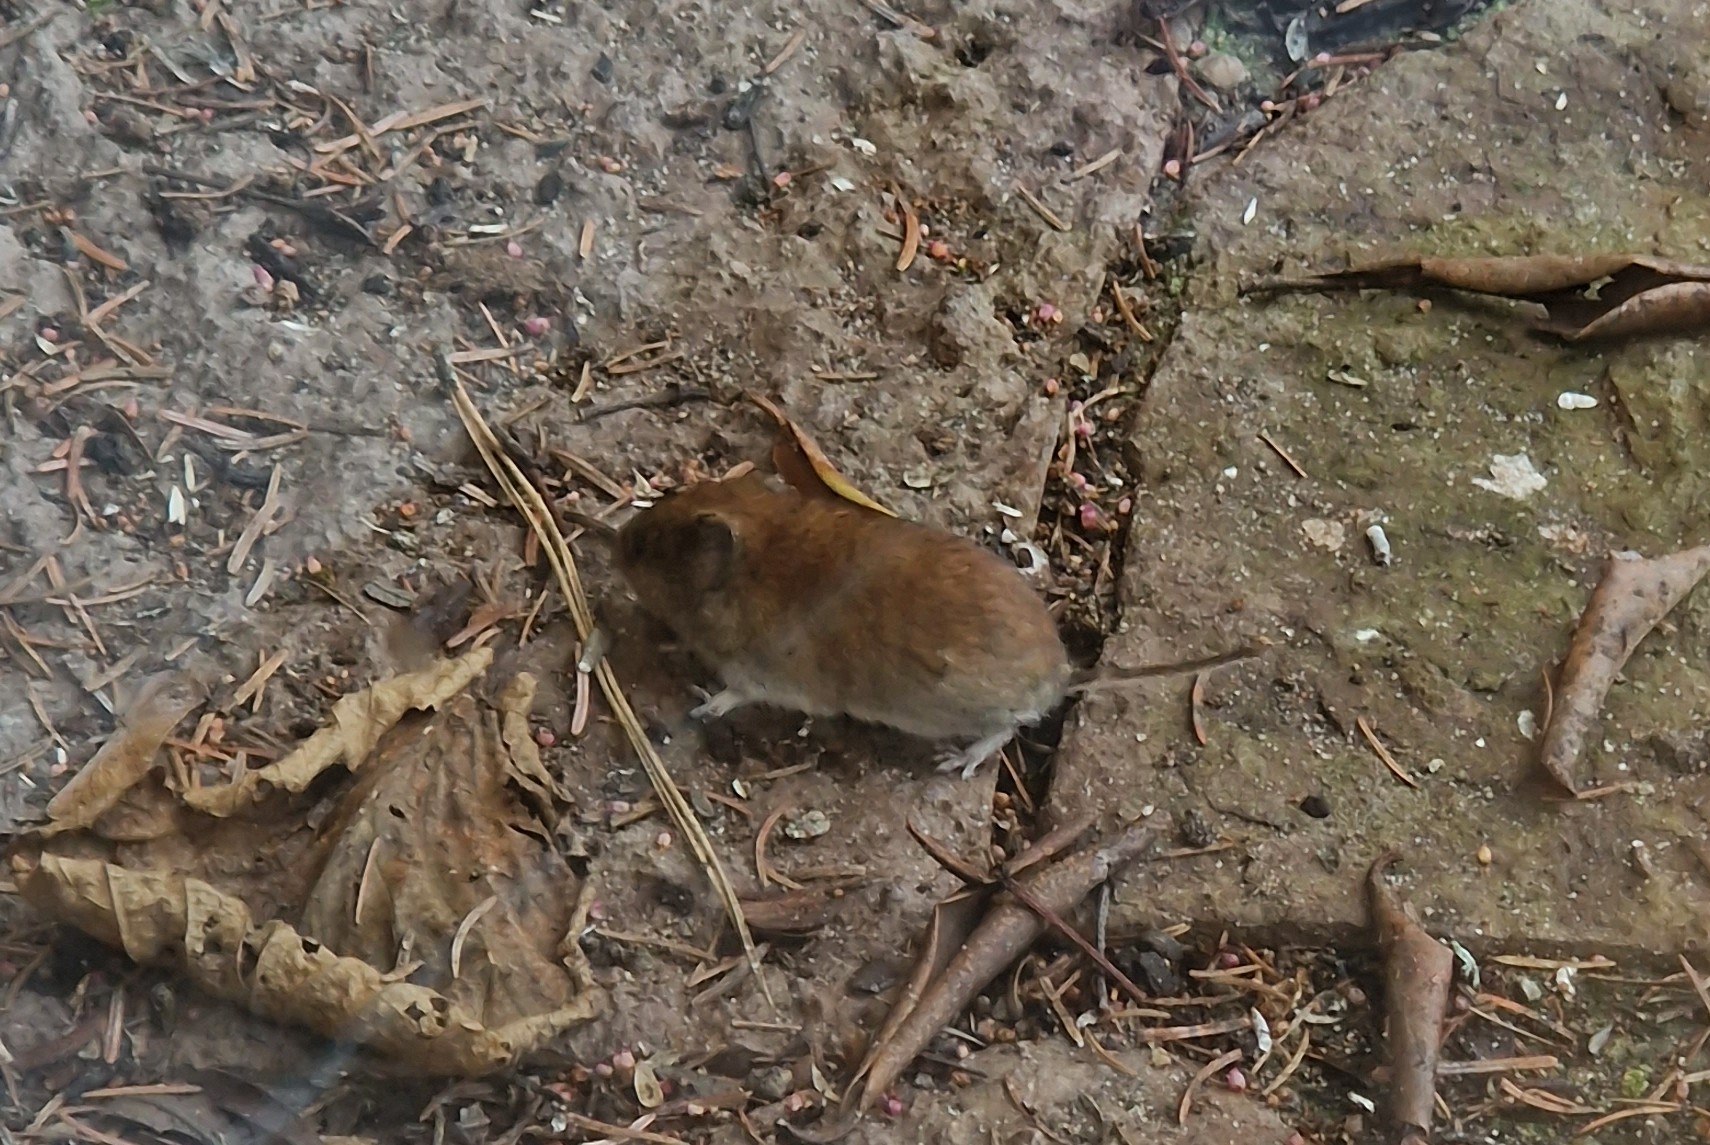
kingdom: Animalia
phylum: Chordata
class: Mammalia
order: Rodentia
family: Cricetidae
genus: Myodes
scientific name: Myodes glareolus
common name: Rødmus
